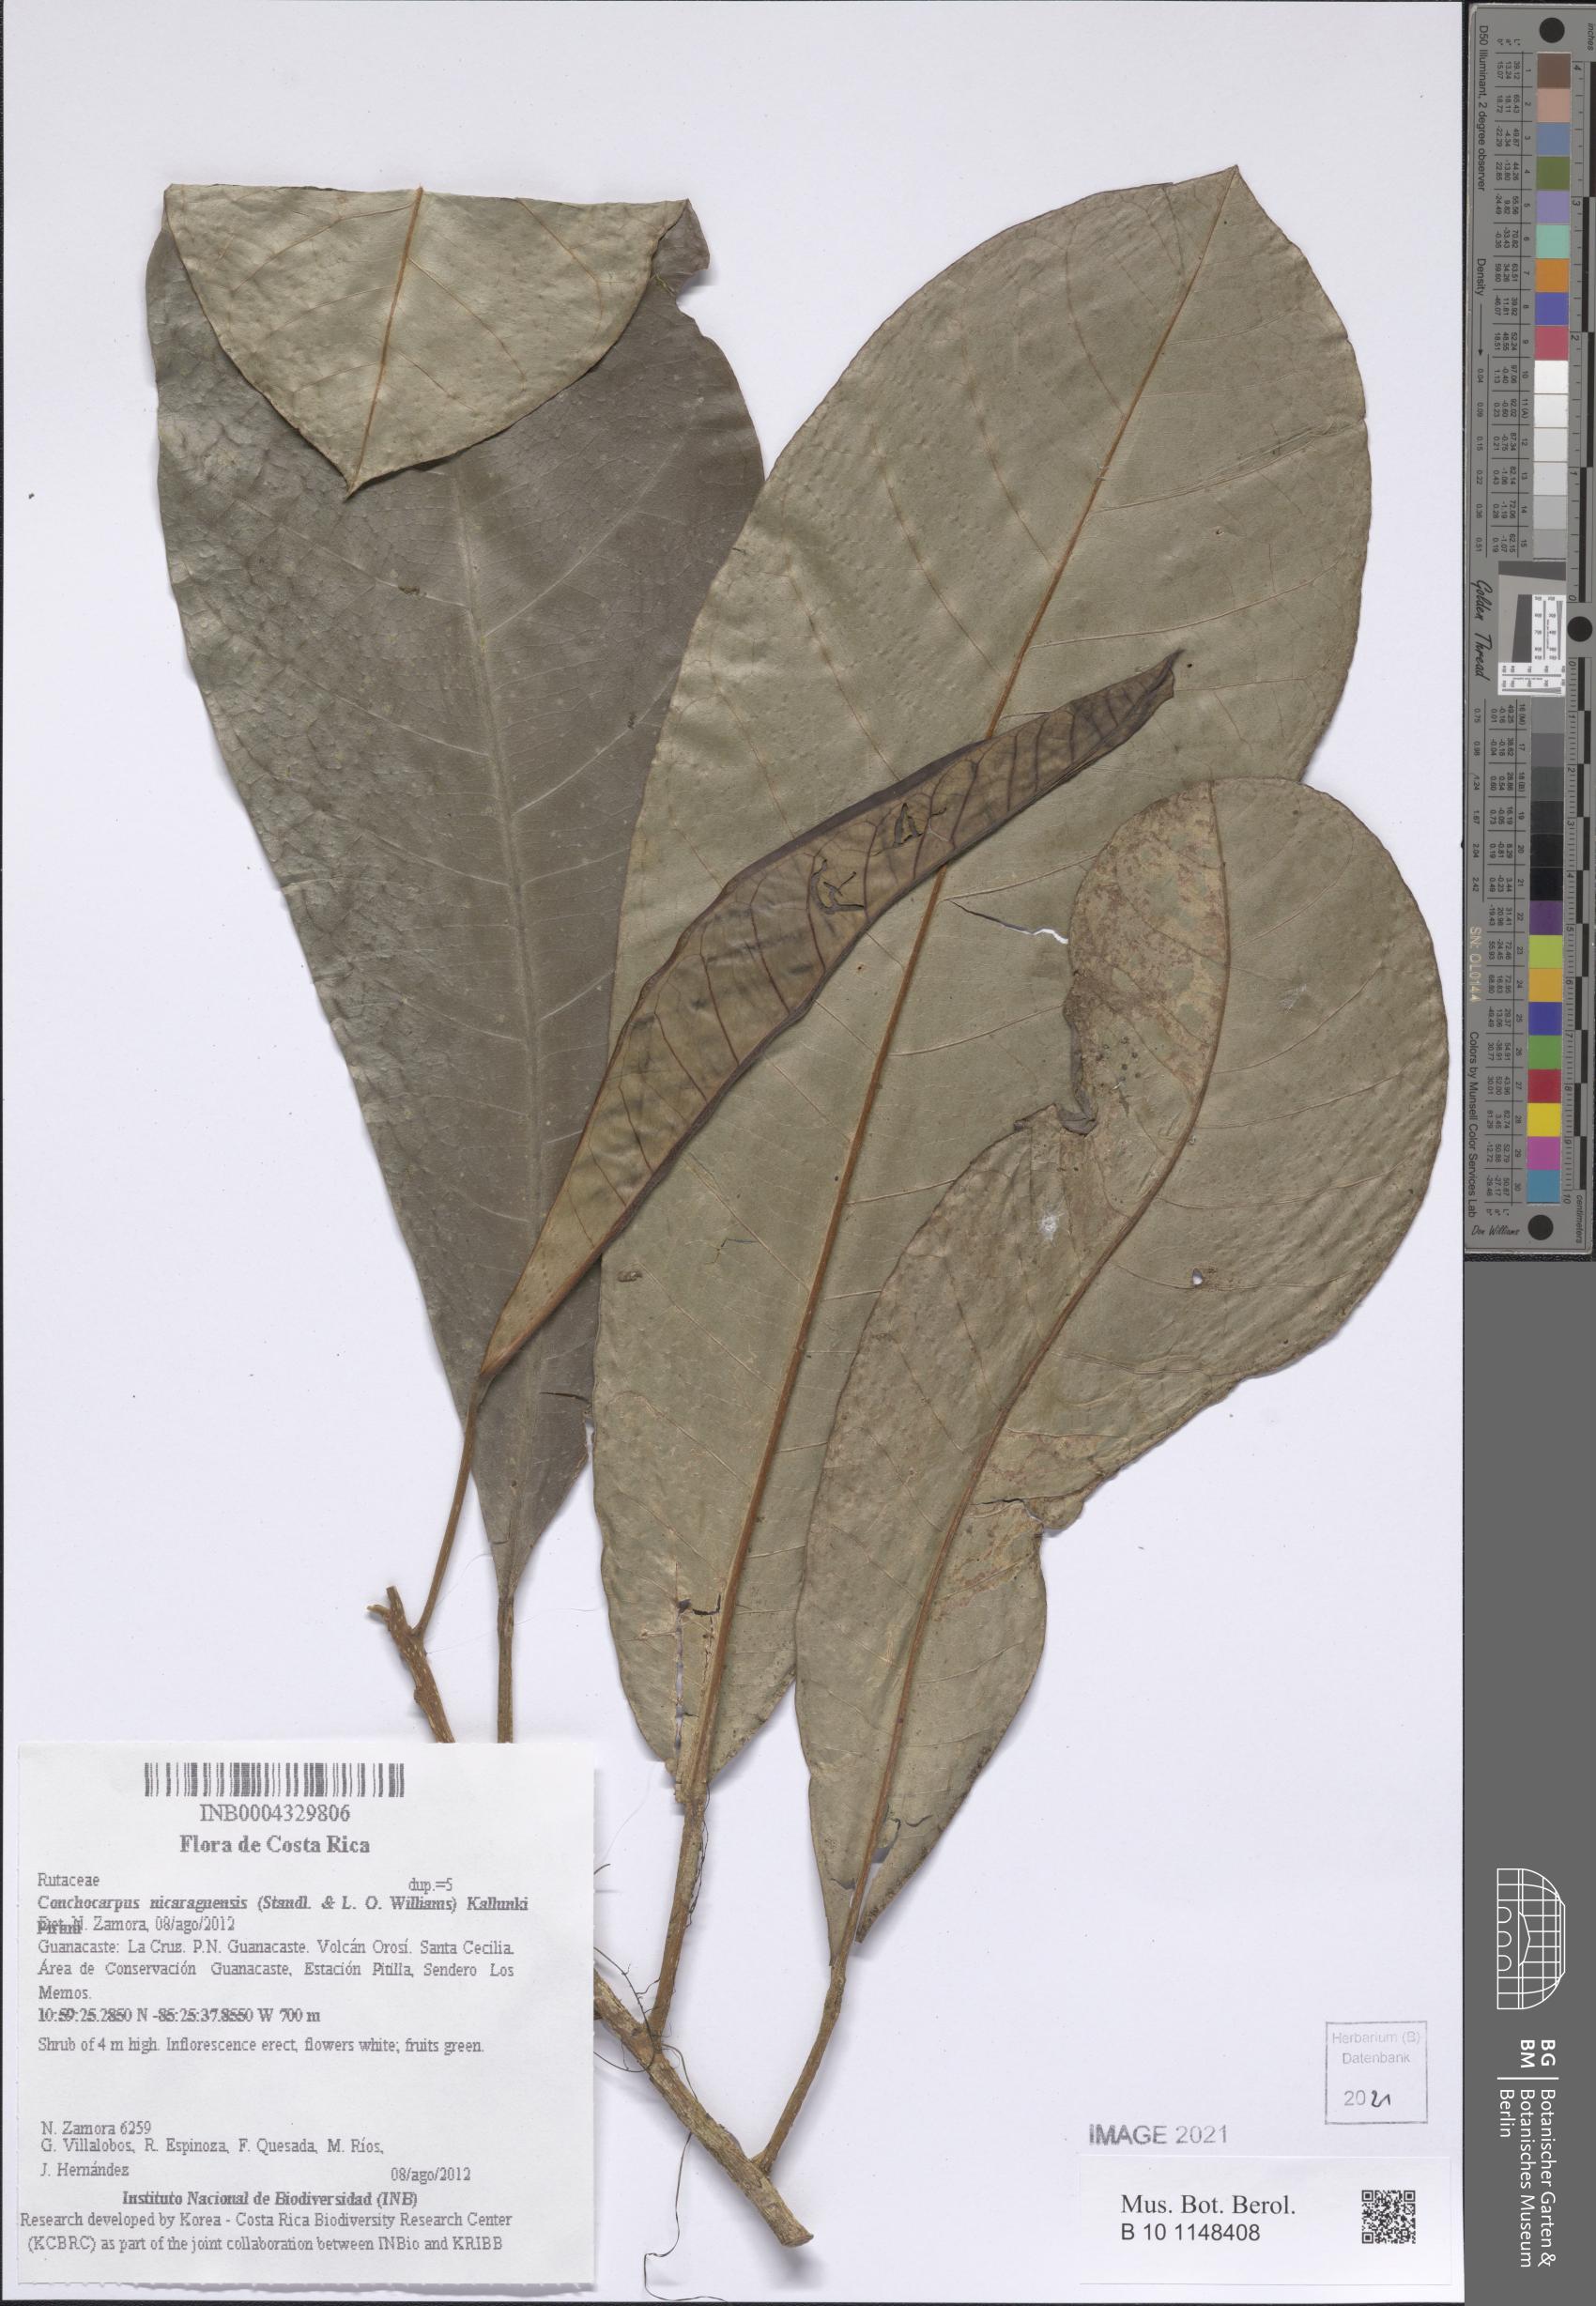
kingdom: Plantae
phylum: Tracheophyta
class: Magnoliopsida
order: Sapindales
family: Rutaceae
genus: Conchocarpus
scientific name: Conchocarpus nicaraguensis
